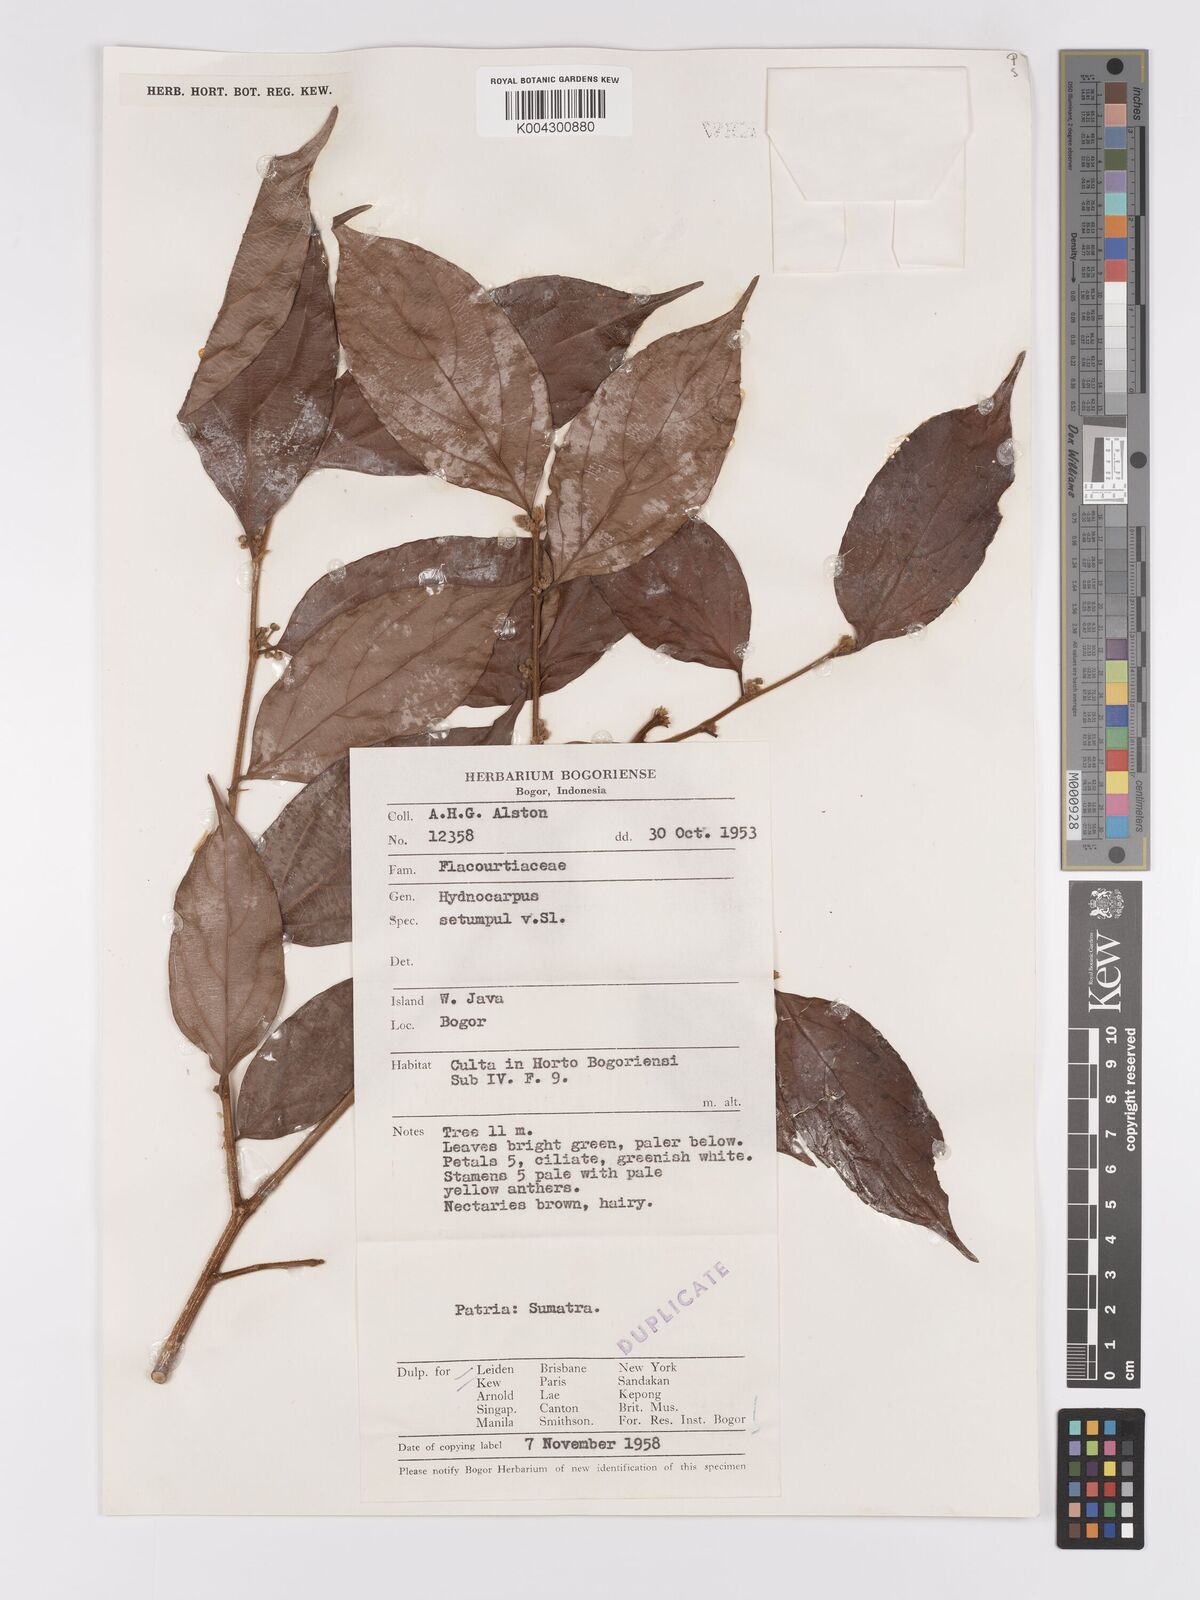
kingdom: Plantae
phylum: Tracheophyta
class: Magnoliopsida
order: Malpighiales
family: Achariaceae
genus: Hydnocarpus
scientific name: Hydnocarpus subfalcatus
